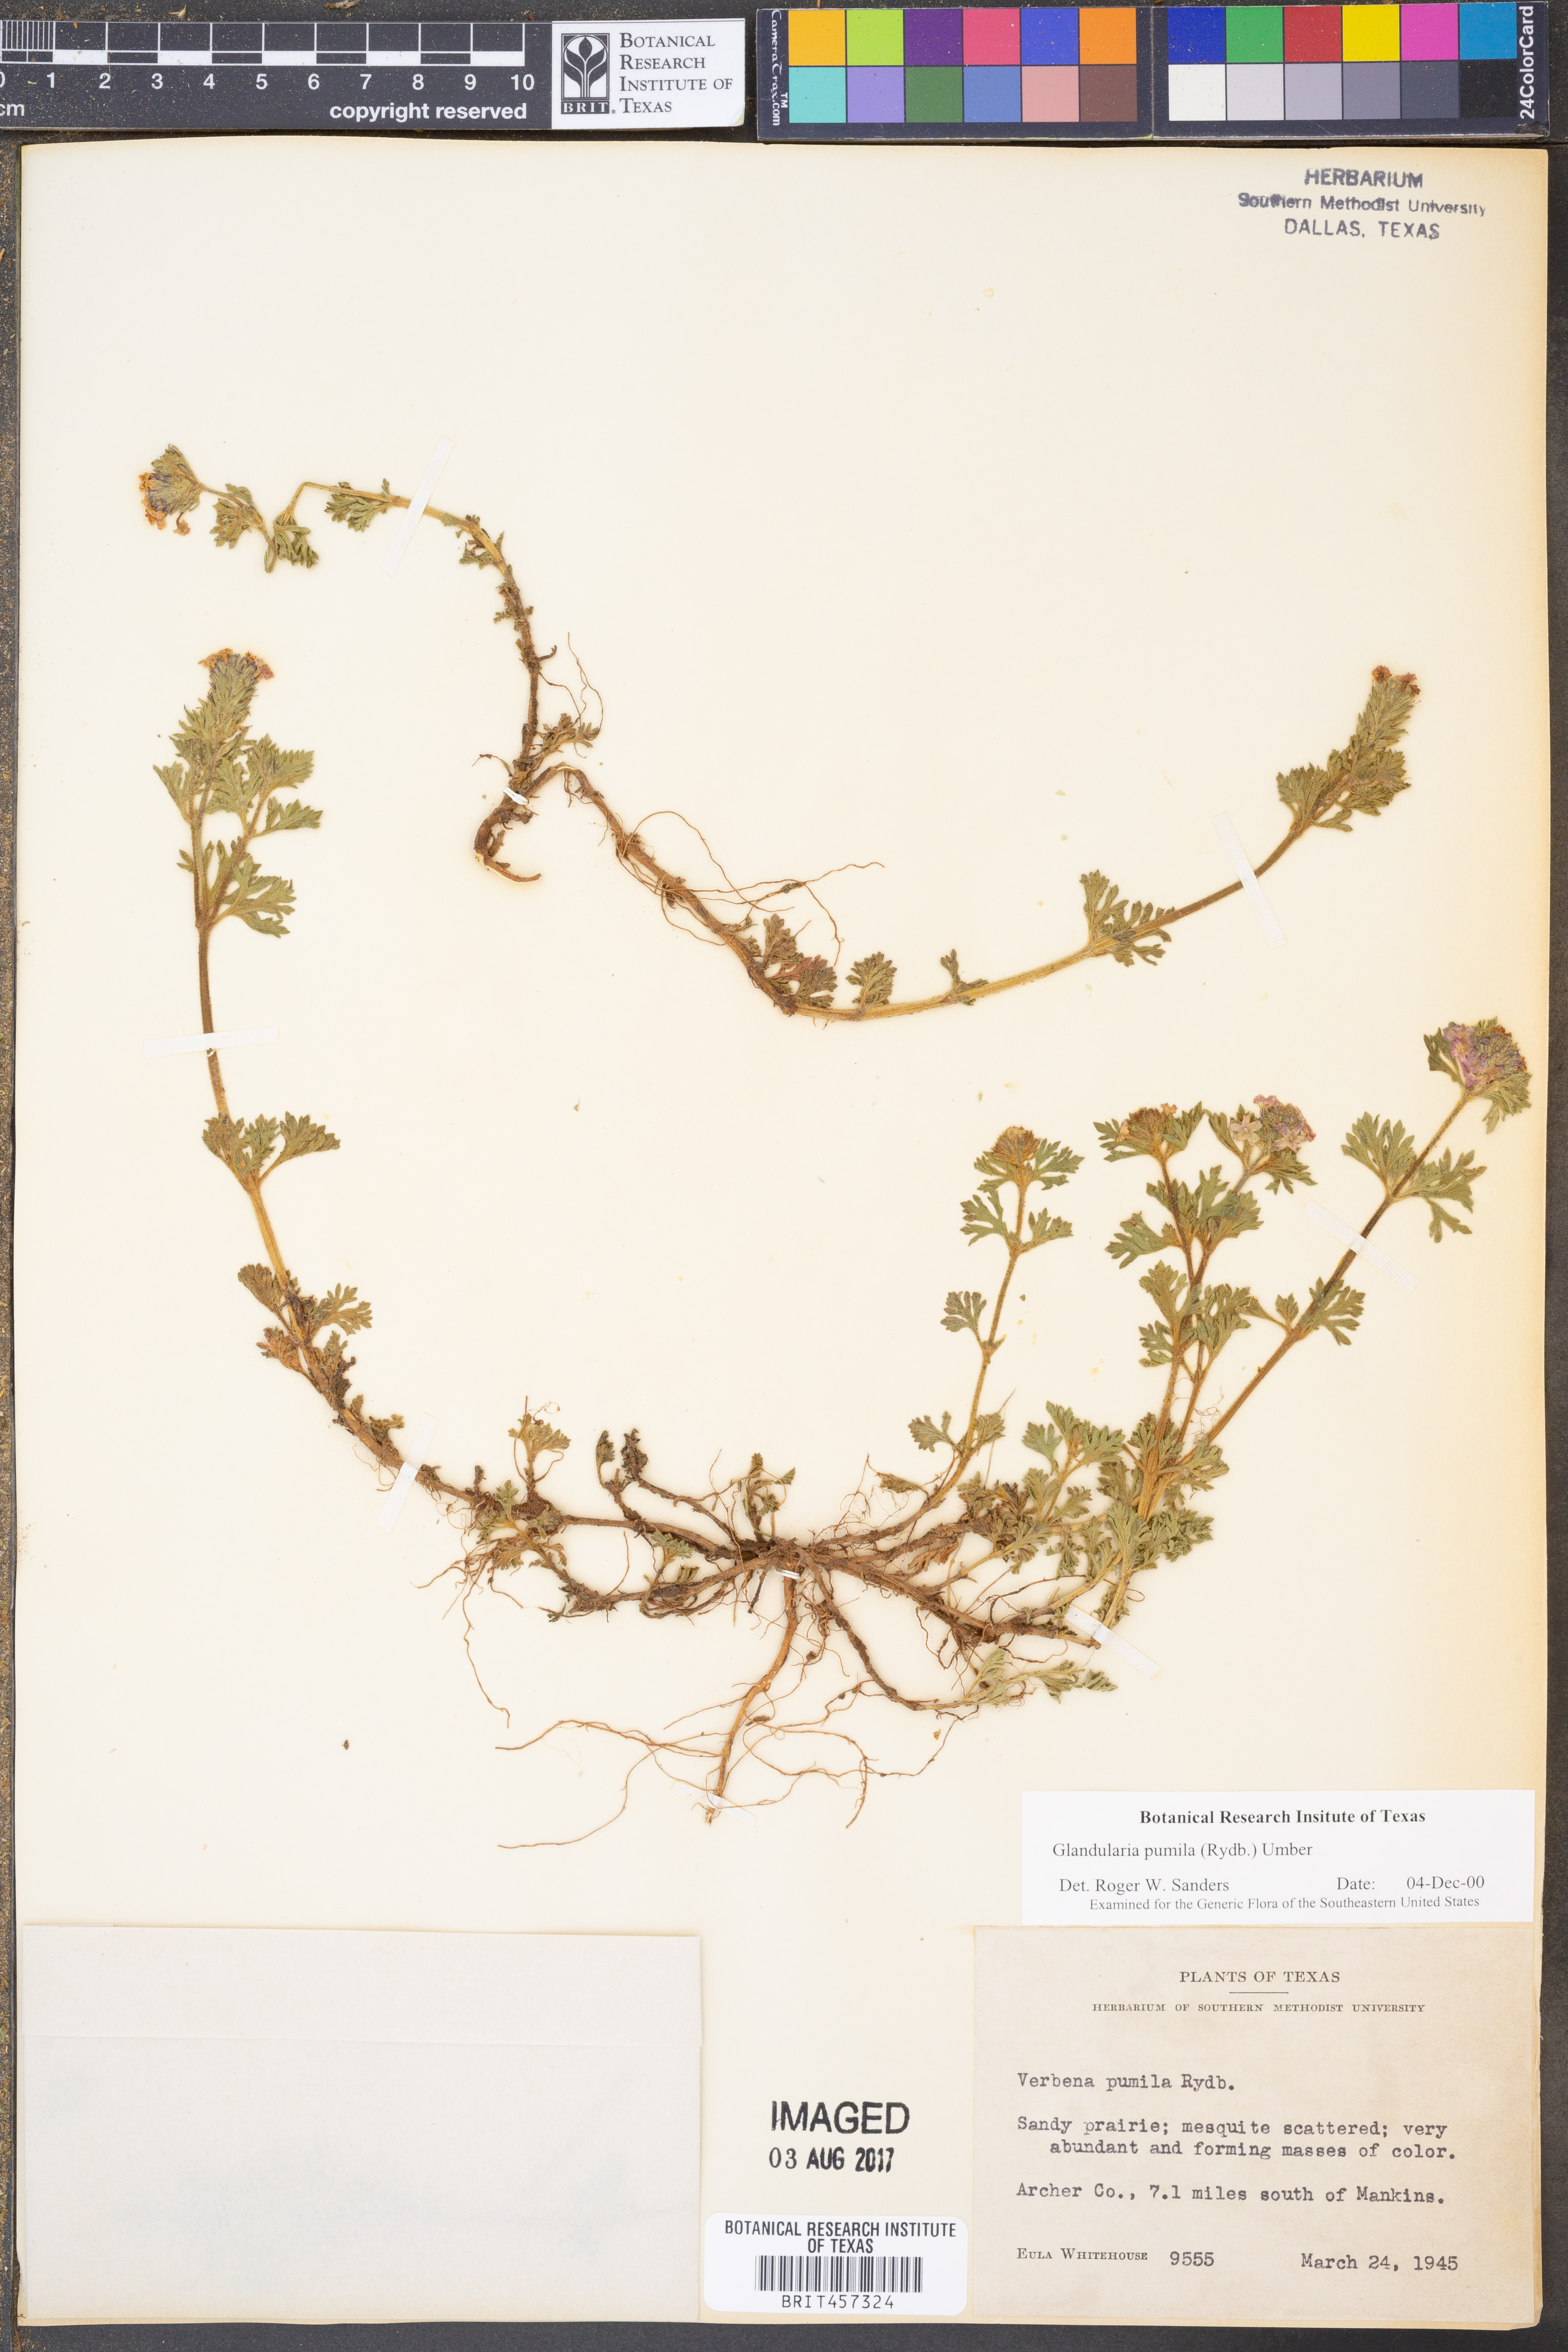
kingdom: Plantae
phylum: Tracheophyta
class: Magnoliopsida
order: Lamiales
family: Verbenaceae
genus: Verbena
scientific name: Verbena pumila
